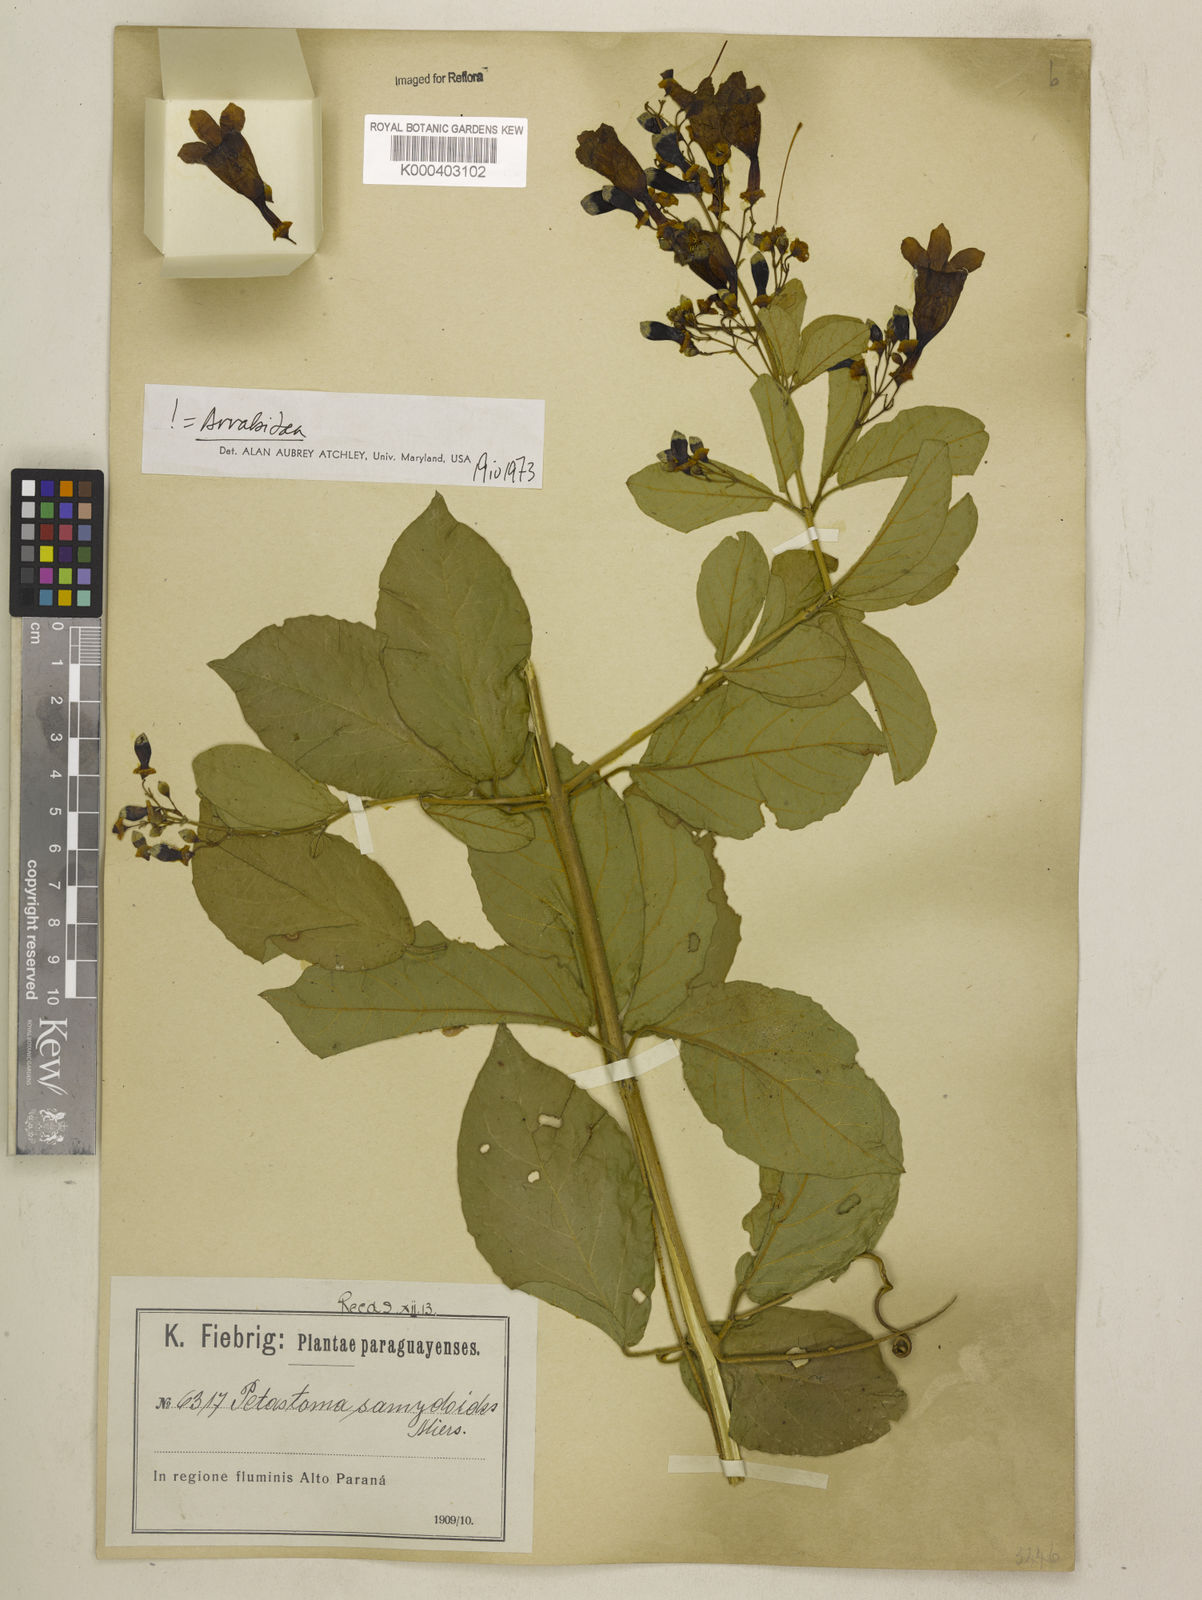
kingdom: Plantae
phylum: Tracheophyta
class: Magnoliopsida
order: Lamiales
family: Bignoniaceae
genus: Fridericia
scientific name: Fridericia samydoides
